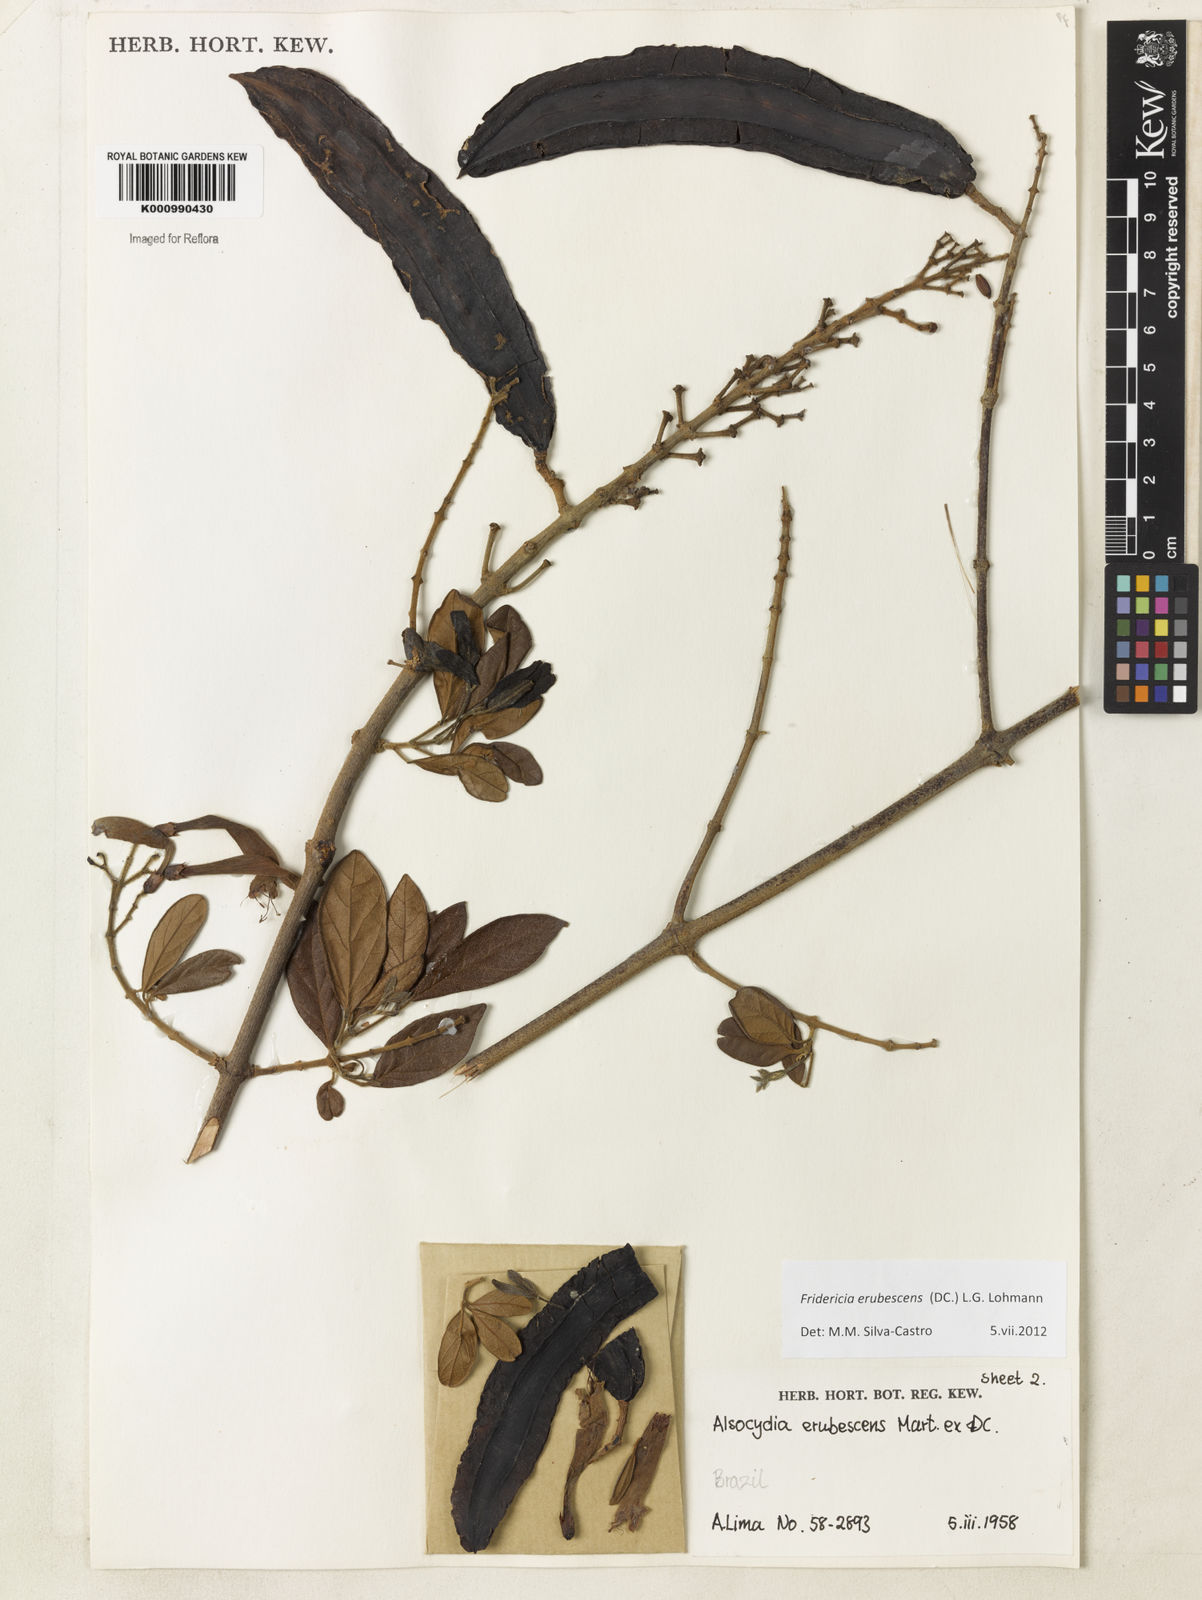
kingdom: Plantae
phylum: Tracheophyta
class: Magnoliopsida
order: Lamiales
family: Bignoniaceae
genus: Fridericia
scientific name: Fridericia erubescens
